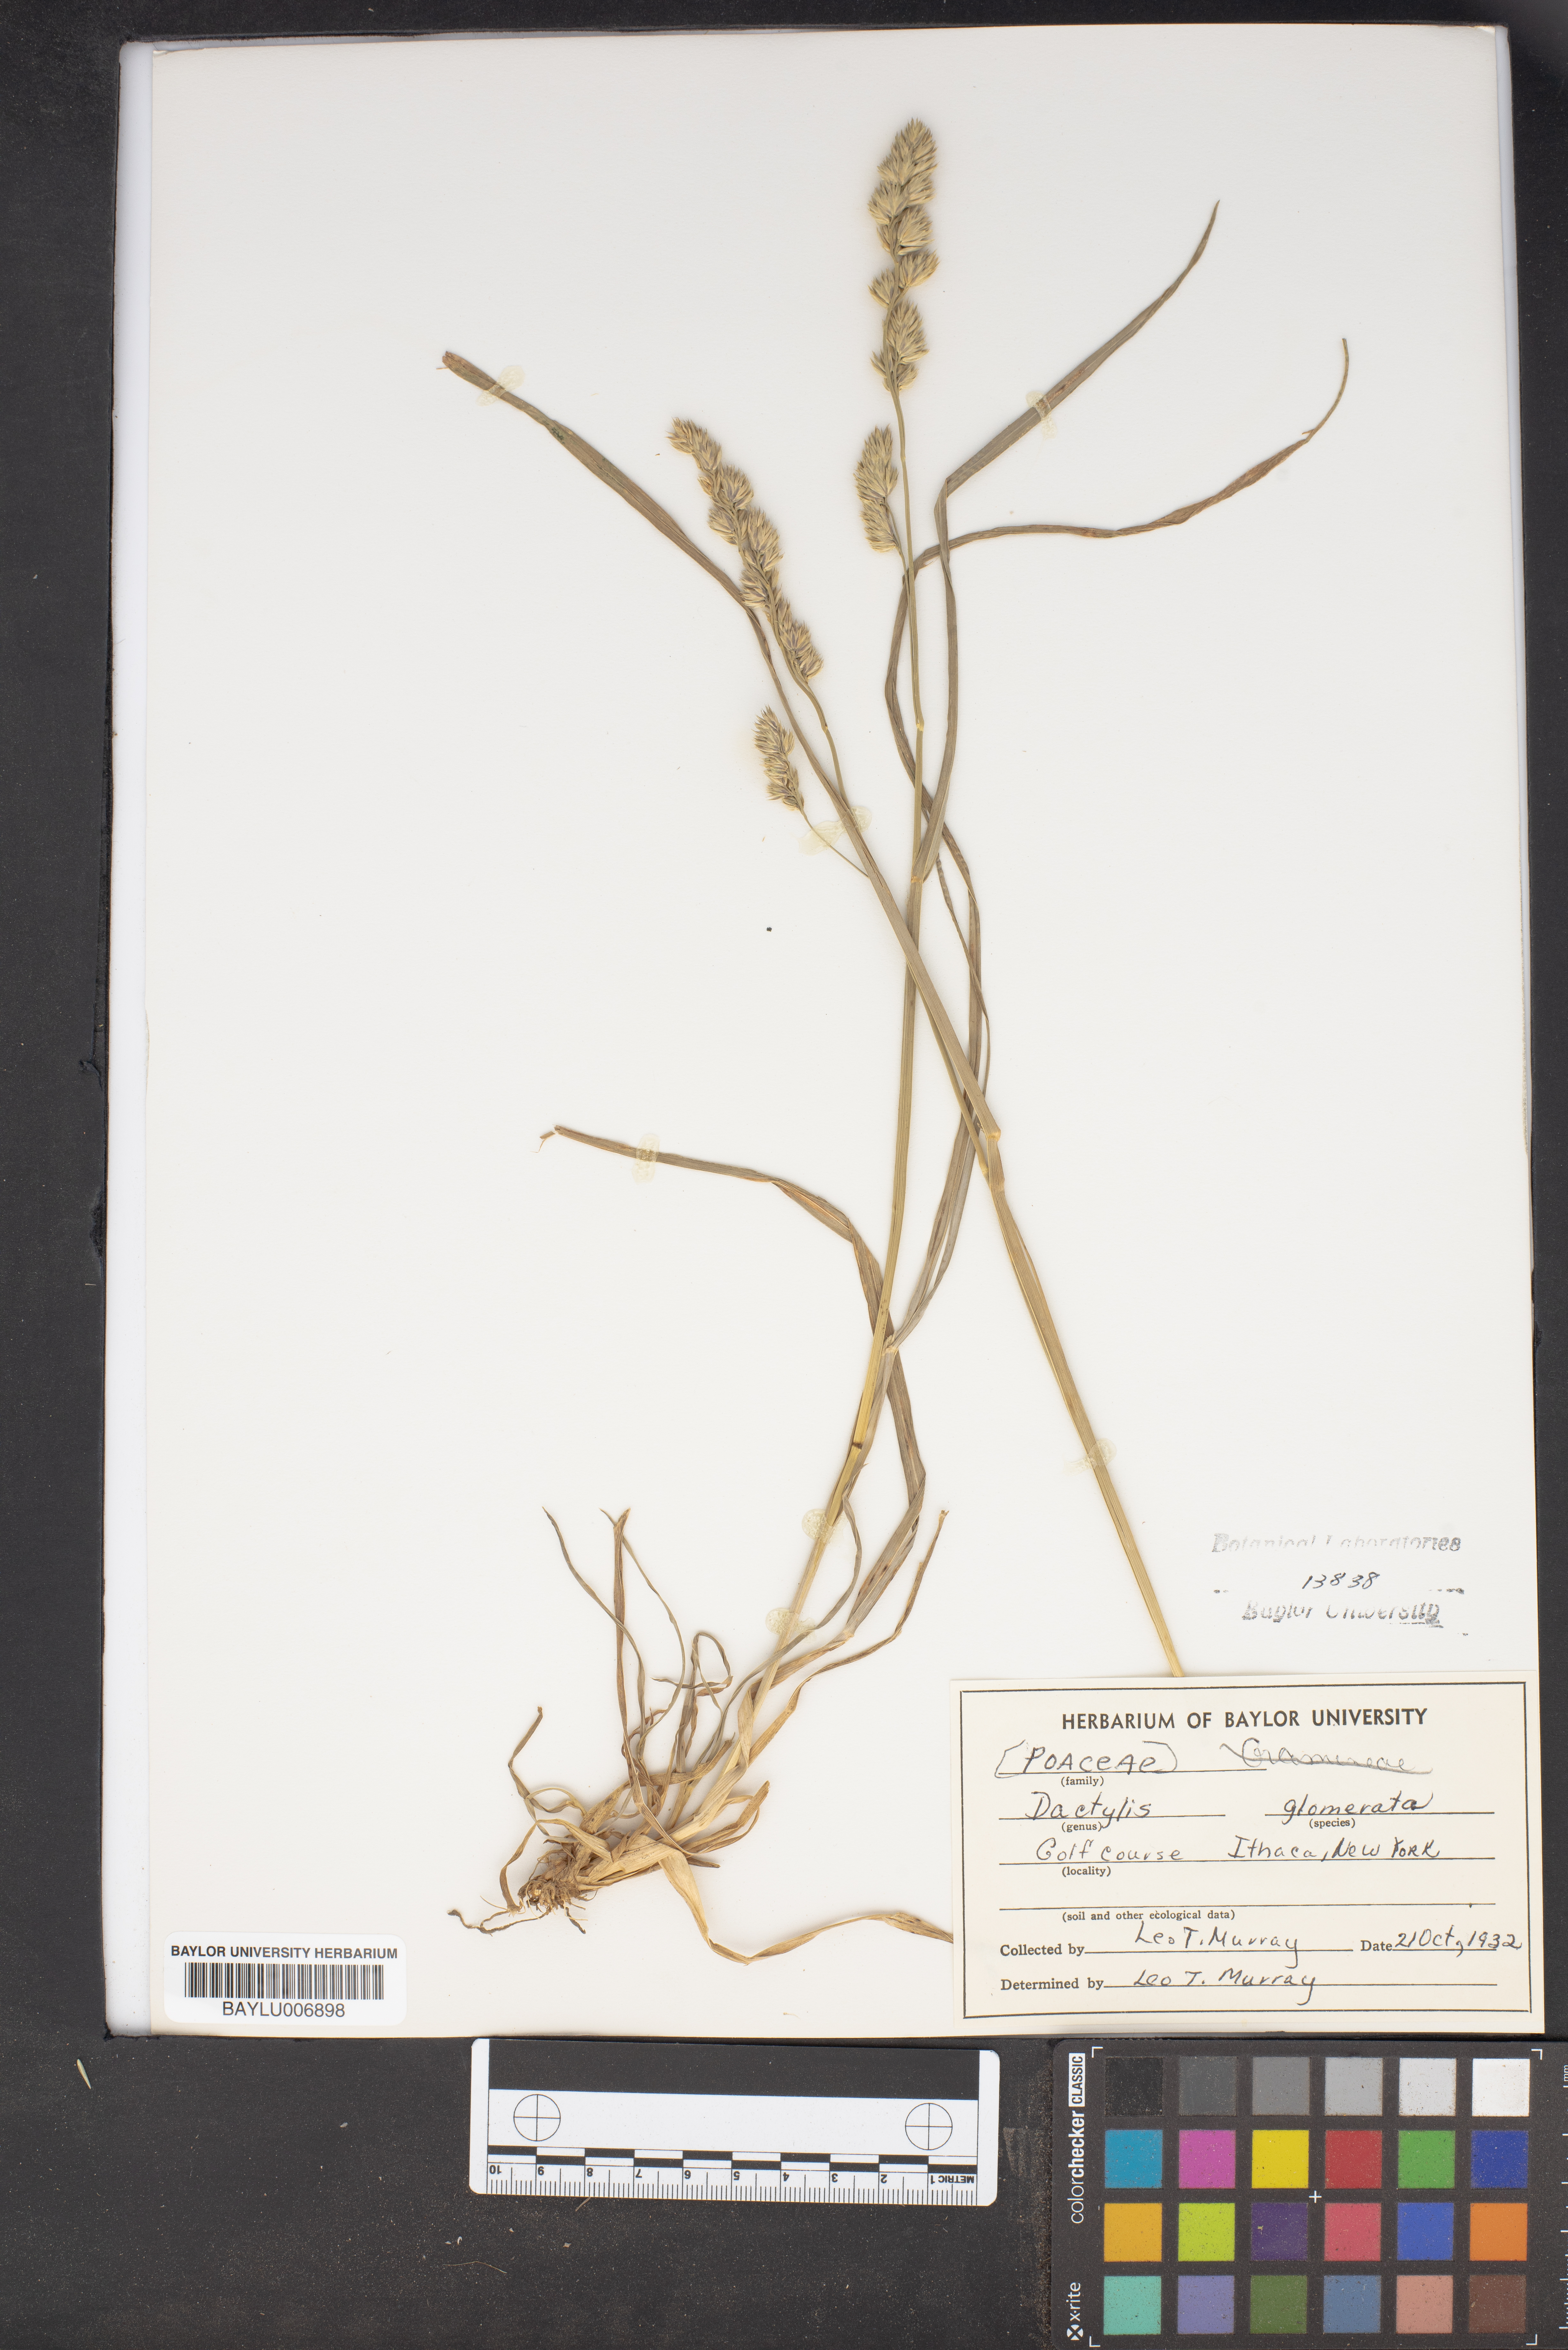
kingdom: Plantae
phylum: Tracheophyta
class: Liliopsida
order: Poales
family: Poaceae
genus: Dactylis
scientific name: Dactylis glomerata
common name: Orchardgrass
